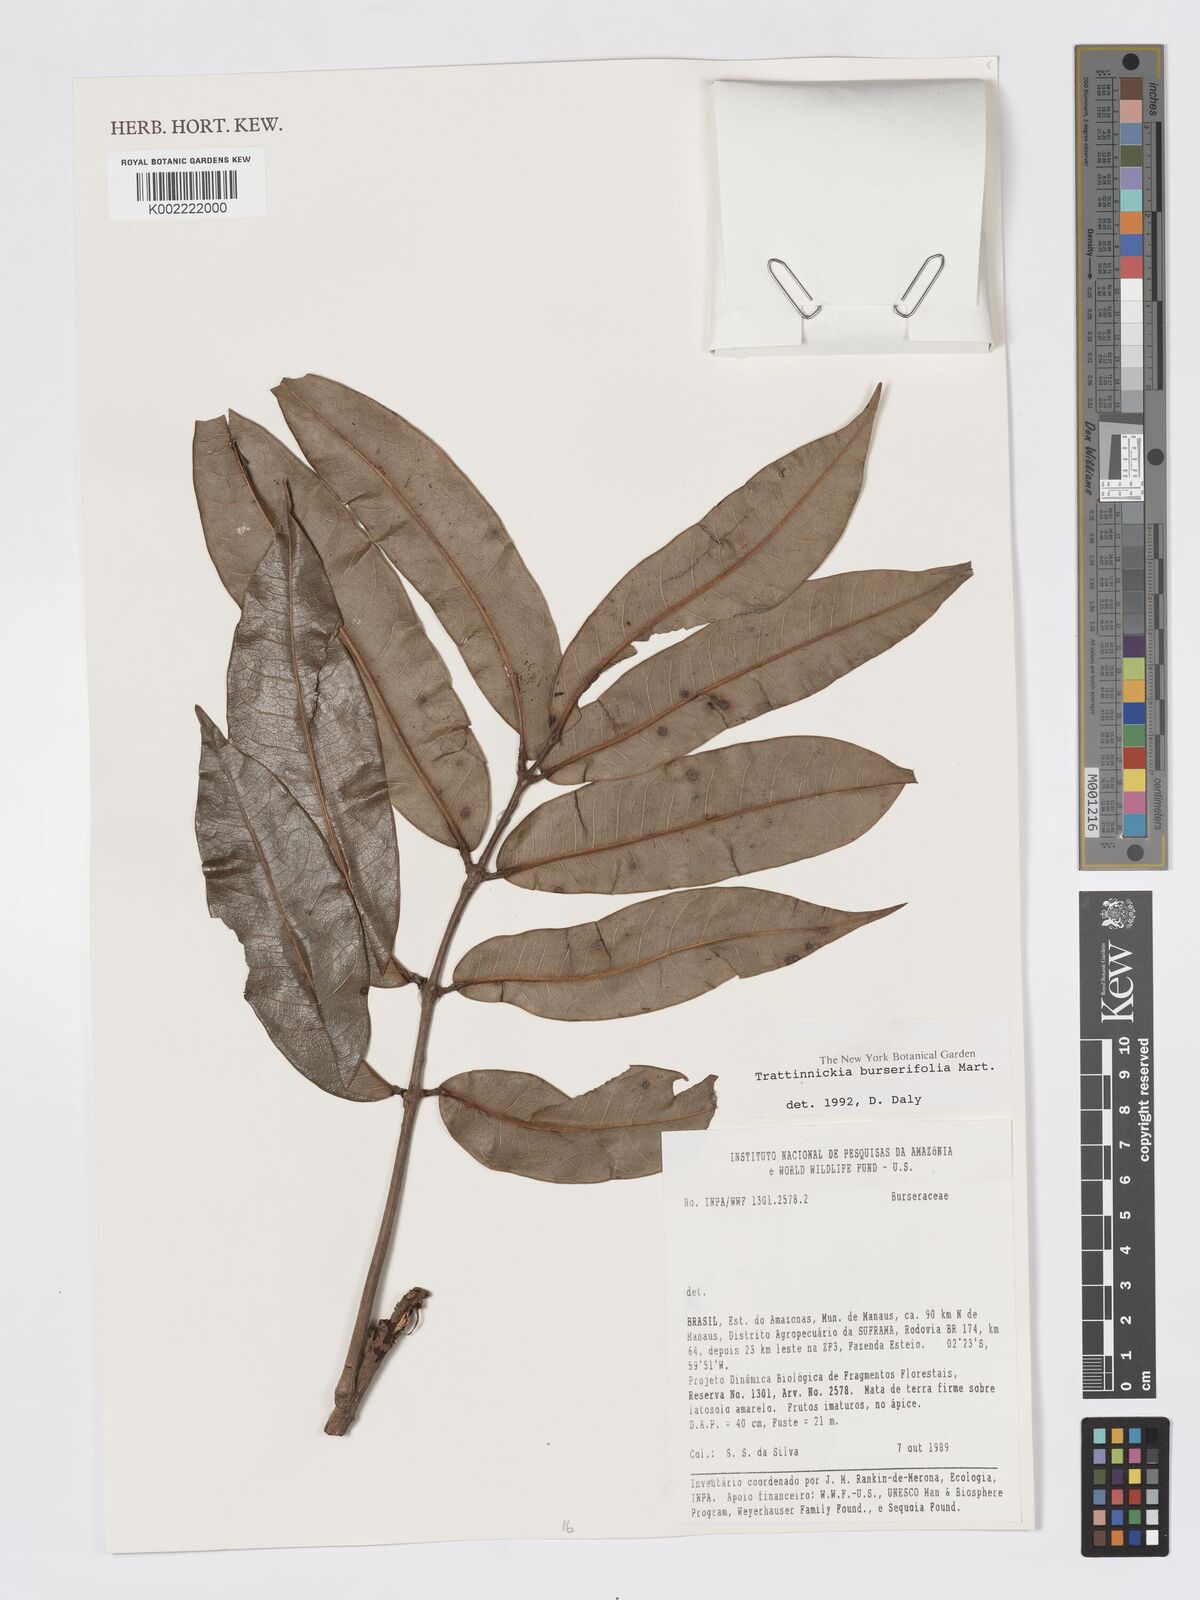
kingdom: Plantae
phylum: Tracheophyta
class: Magnoliopsida
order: Sapindales
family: Burseraceae
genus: Trattinnickia
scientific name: Trattinnickia burserifolia
